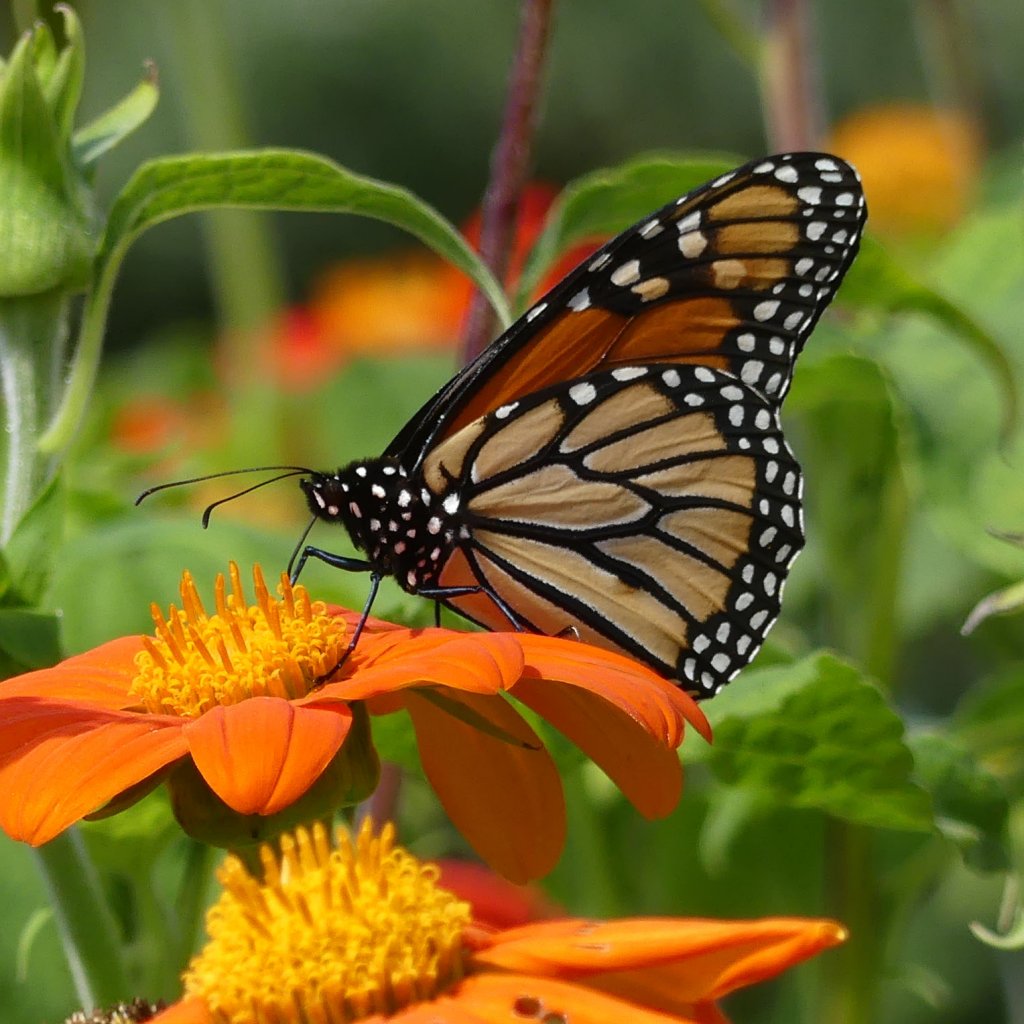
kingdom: Animalia
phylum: Arthropoda
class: Insecta
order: Lepidoptera
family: Nymphalidae
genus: Danaus
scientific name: Danaus plexippus
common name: Monarch
